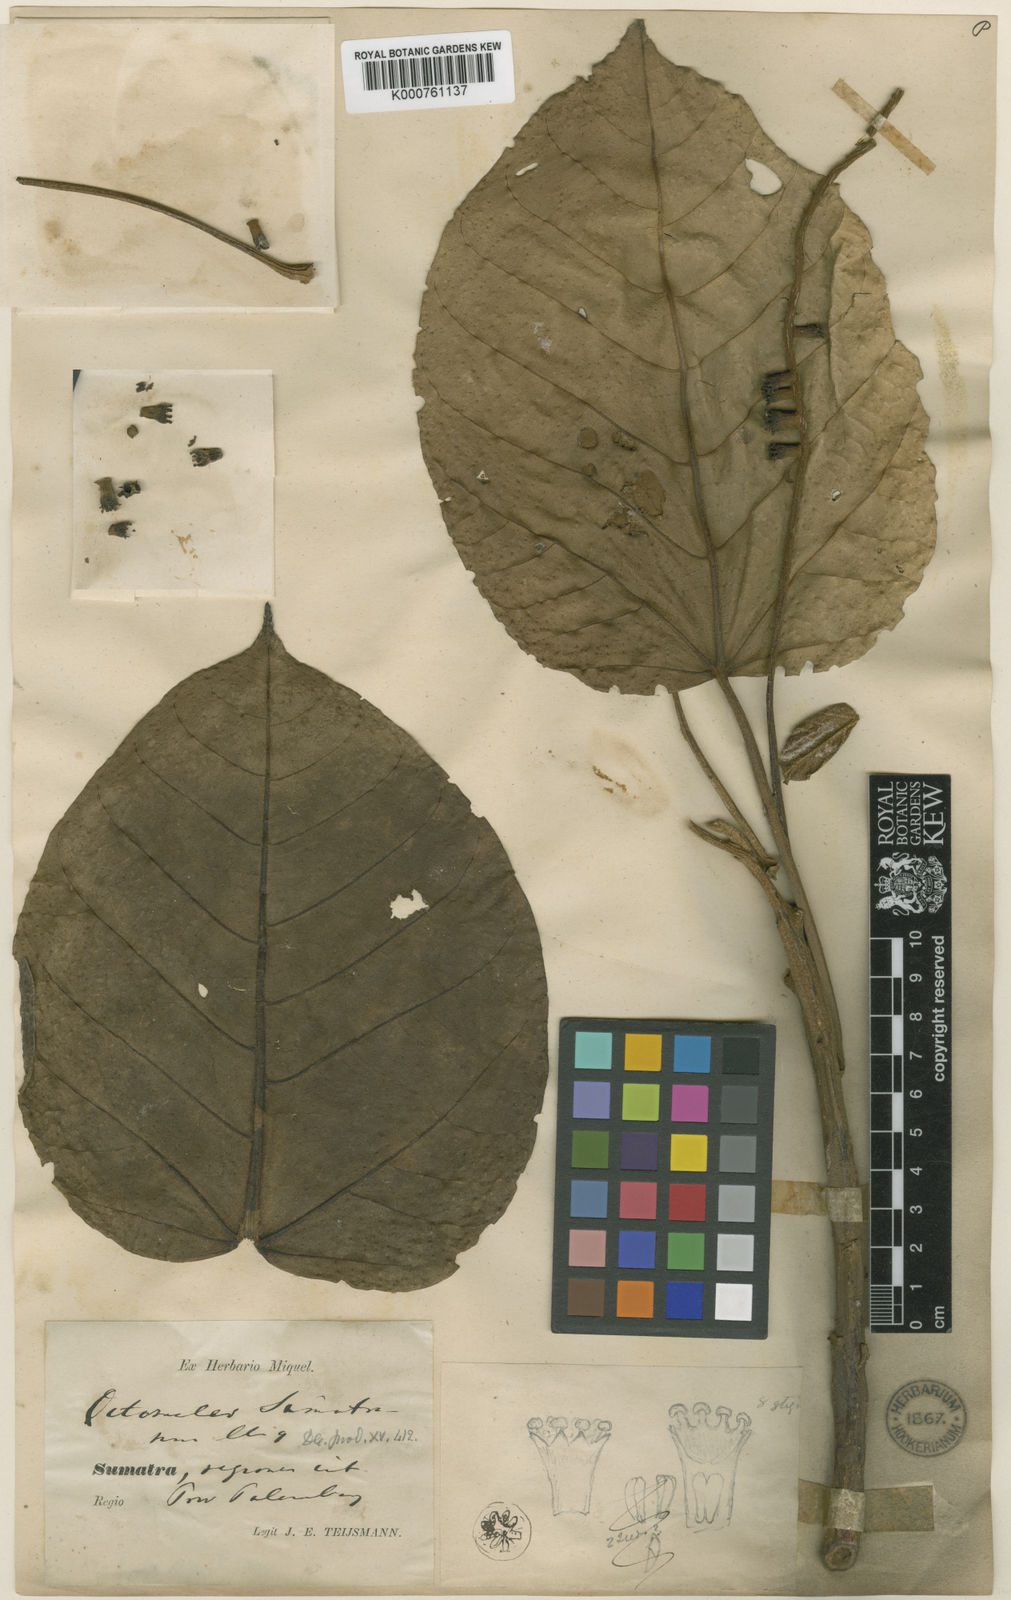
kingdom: Plantae
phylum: Tracheophyta
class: Magnoliopsida
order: Cucurbitales
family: Tetramelaceae
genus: Octomeles
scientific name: Octomeles
